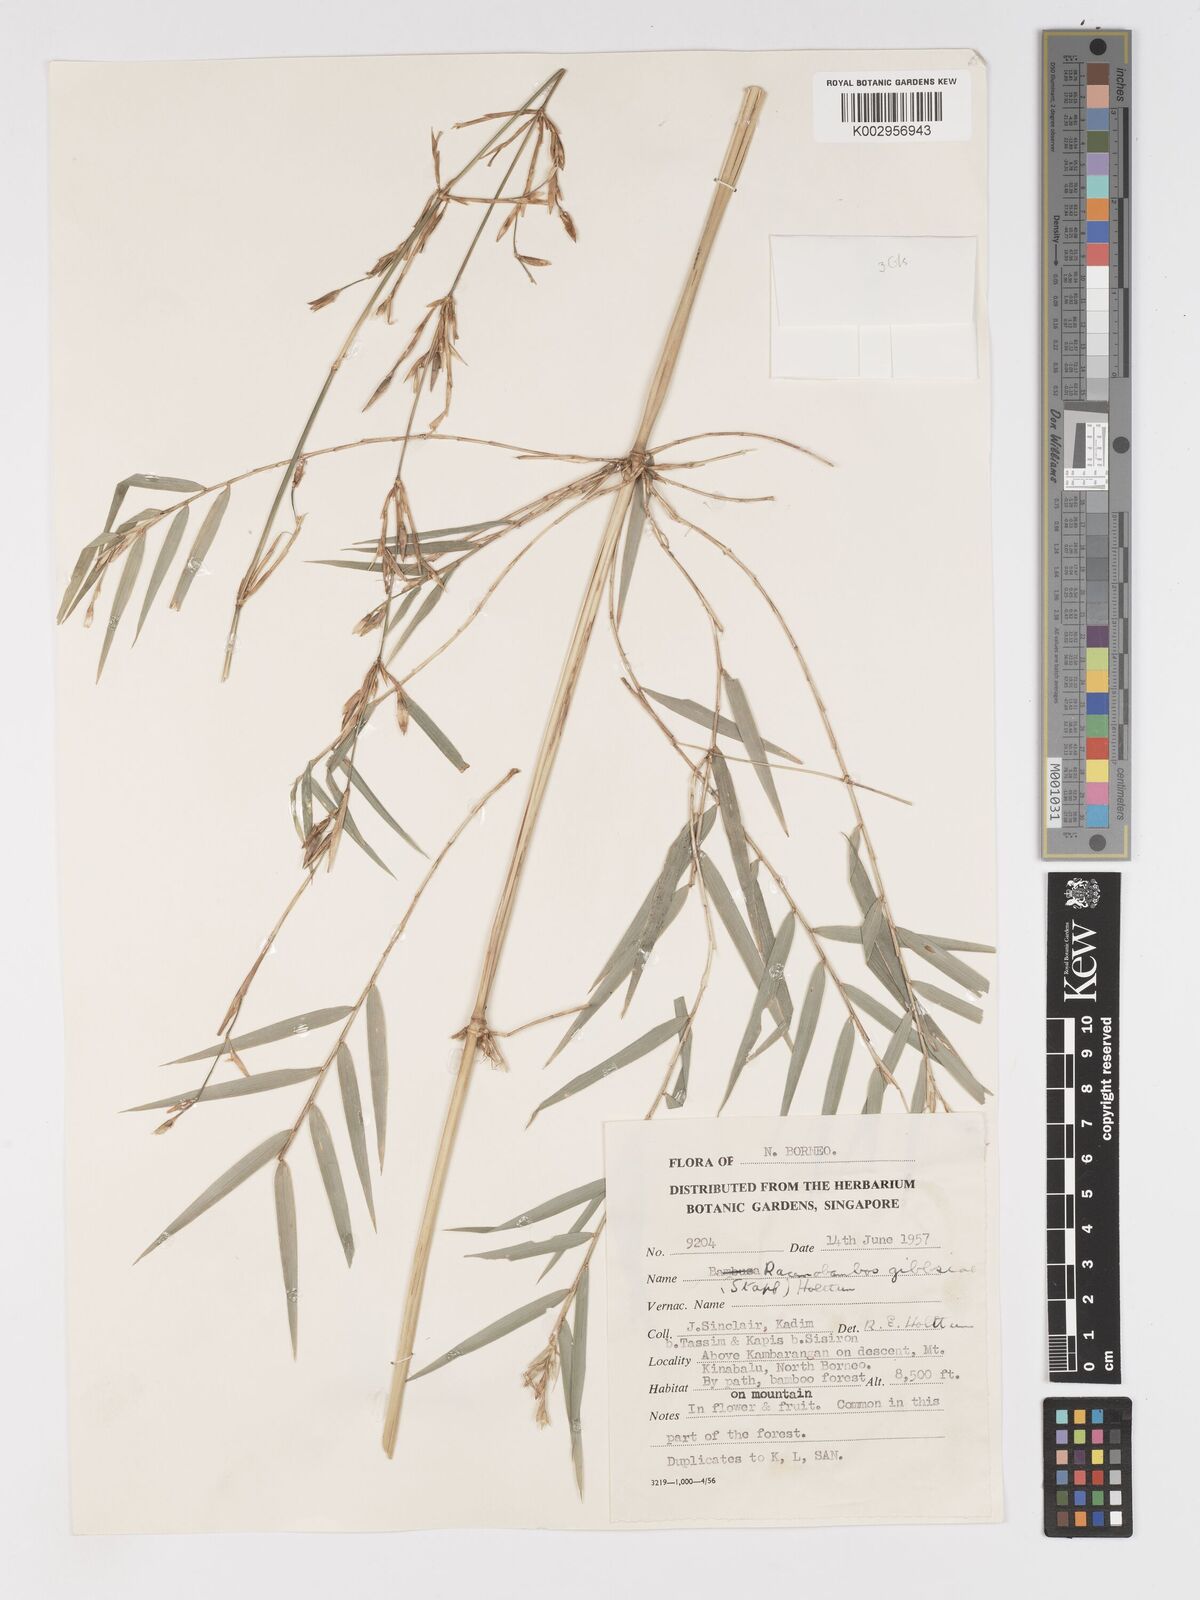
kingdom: Plantae
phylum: Tracheophyta
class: Liliopsida
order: Poales
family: Poaceae
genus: Racemobambos
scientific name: Racemobambos gibbsiae
